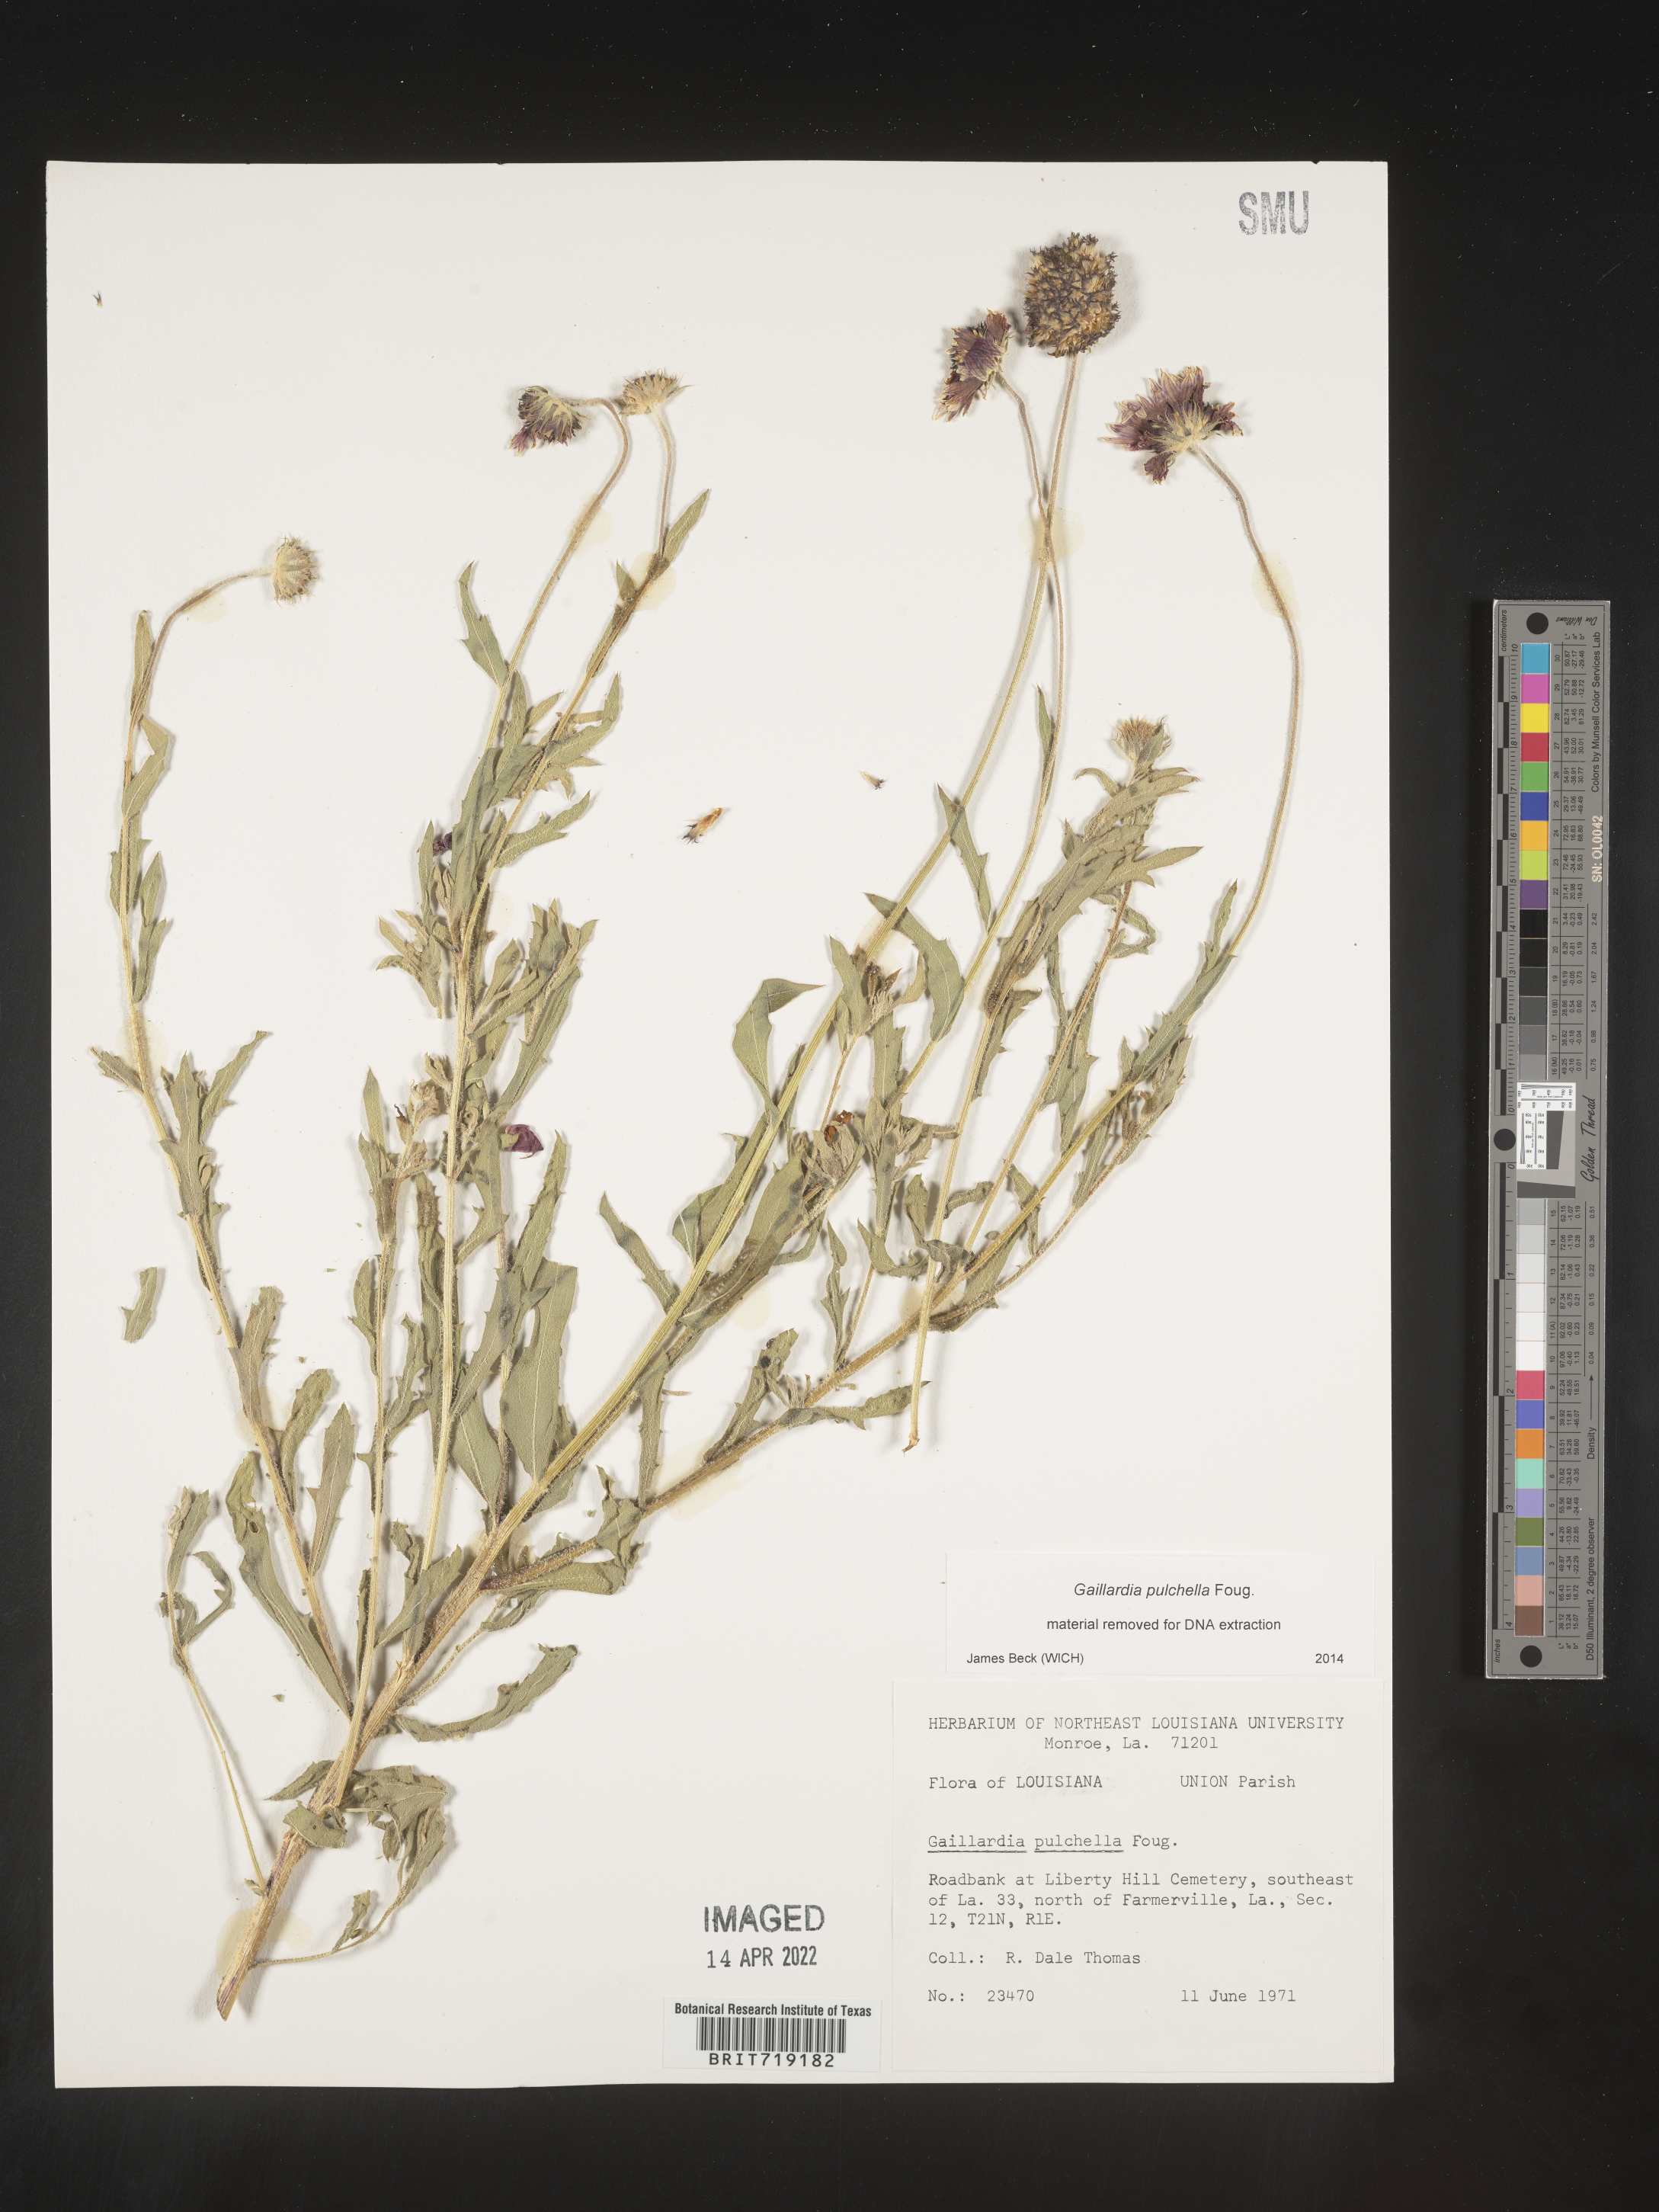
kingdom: Plantae
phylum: Tracheophyta
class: Magnoliopsida
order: Asterales
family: Asteraceae
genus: Gaillardia
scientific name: Gaillardia pulchella
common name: Firewheel
